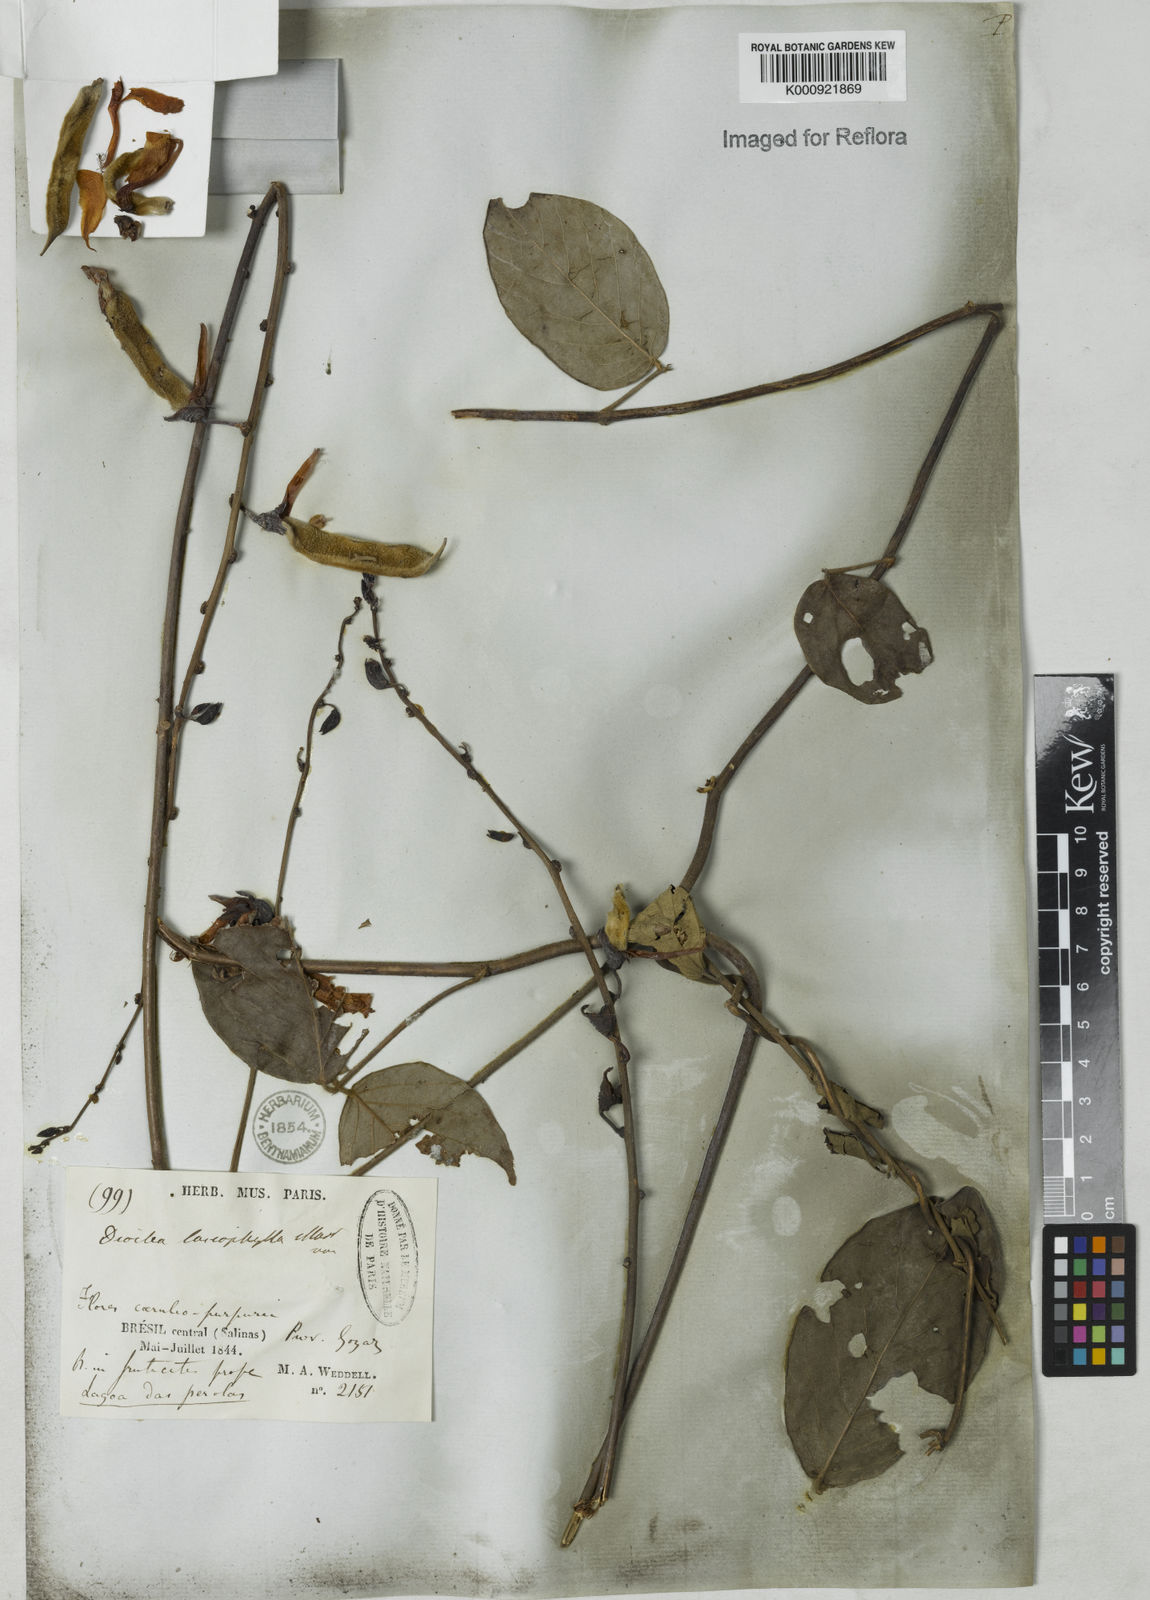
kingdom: Plantae
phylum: Tracheophyta
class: Magnoliopsida
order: Fabales
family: Fabaceae
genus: Dioclea
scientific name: Dioclea lasiophylla
